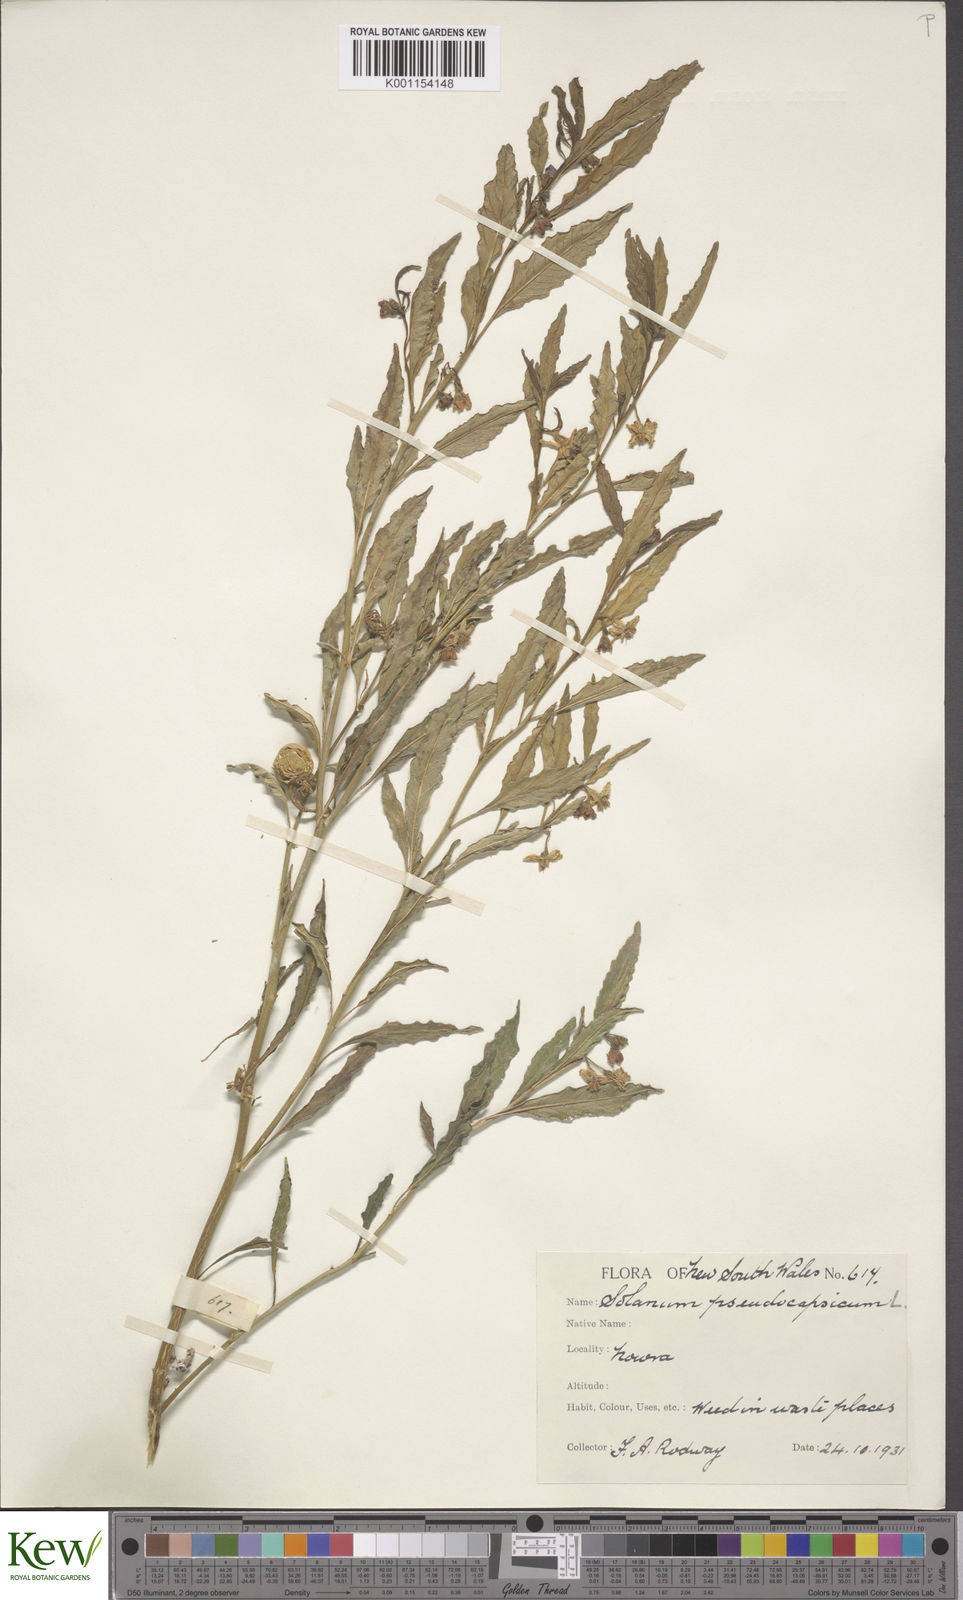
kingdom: Plantae
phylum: Tracheophyta
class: Magnoliopsida
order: Solanales
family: Solanaceae
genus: Solanum
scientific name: Solanum pseudocapsicum
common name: Jerusalem cherry
